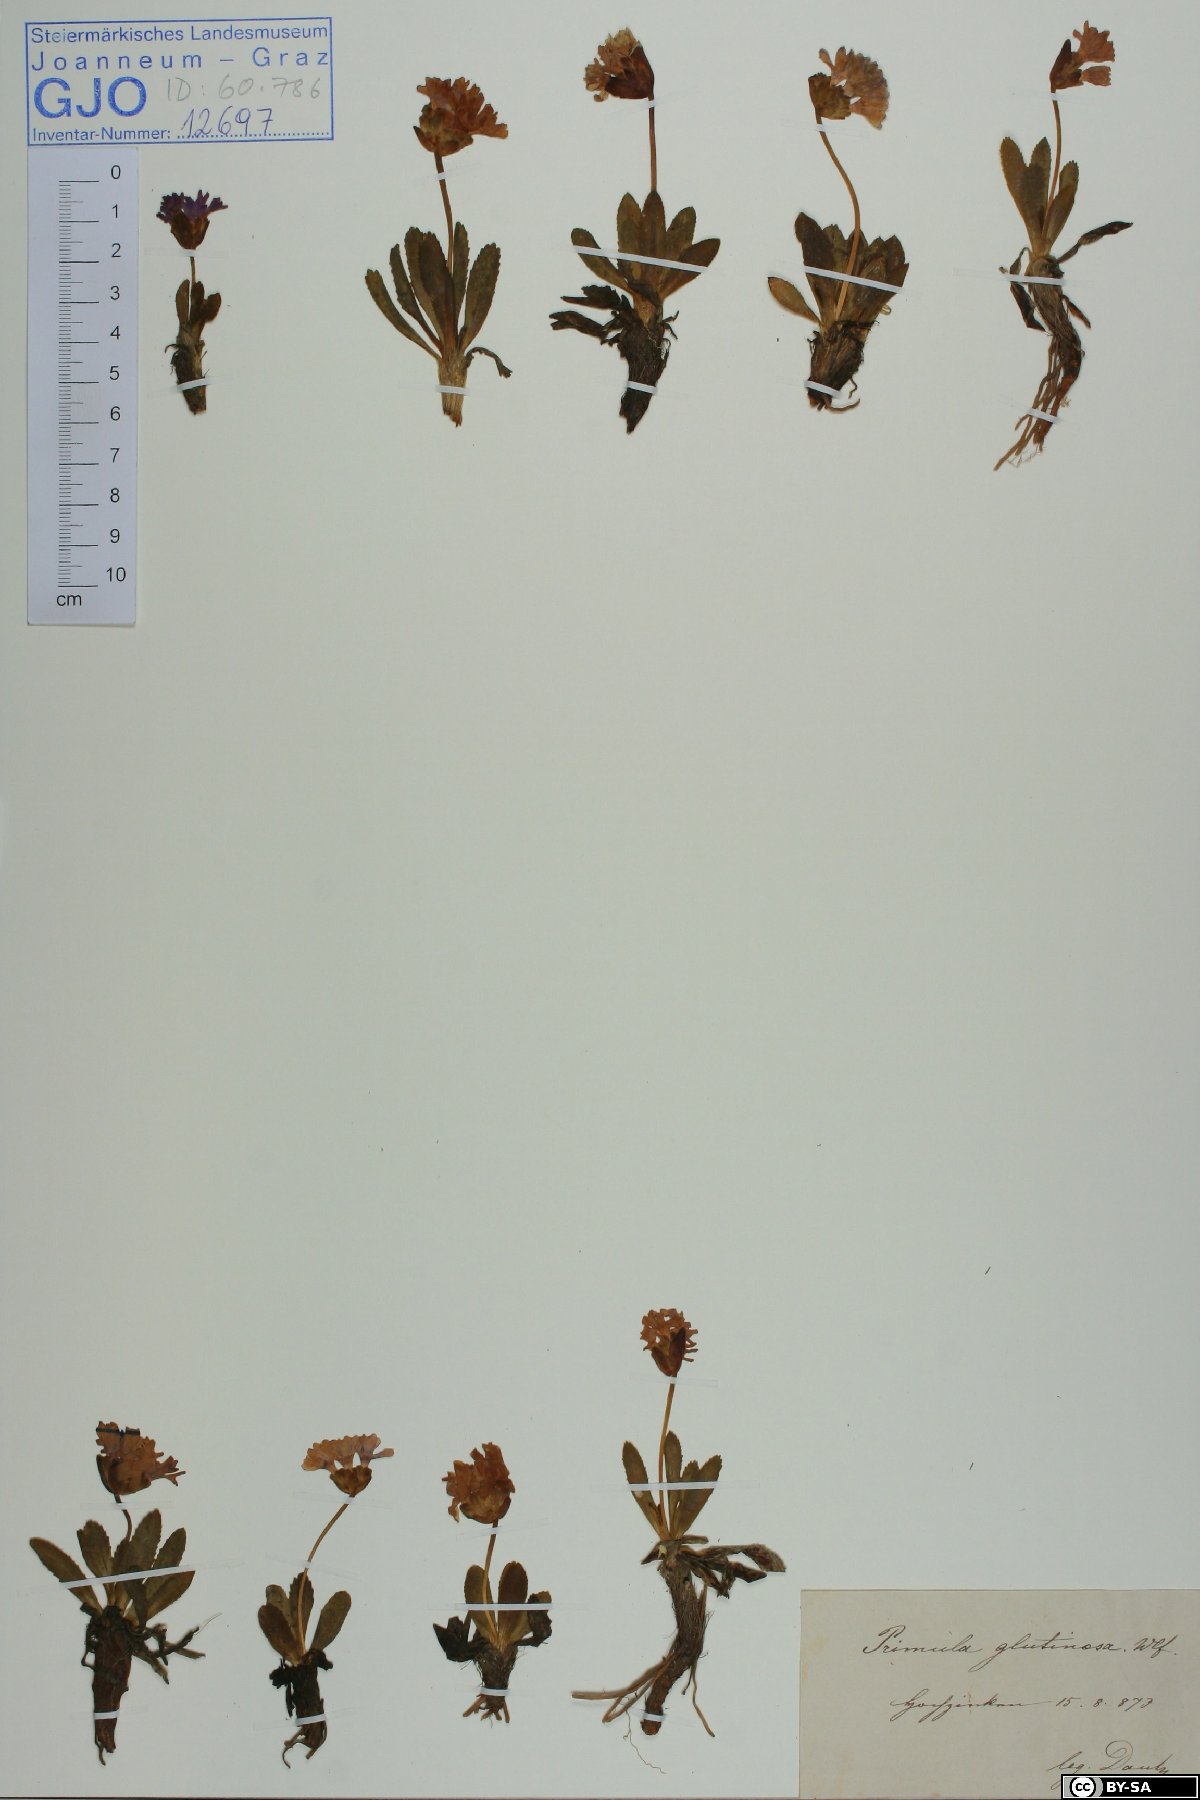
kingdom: Plantae
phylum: Tracheophyta
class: Magnoliopsida
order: Ericales
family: Primulaceae
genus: Primula
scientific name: Primula glutinosa
